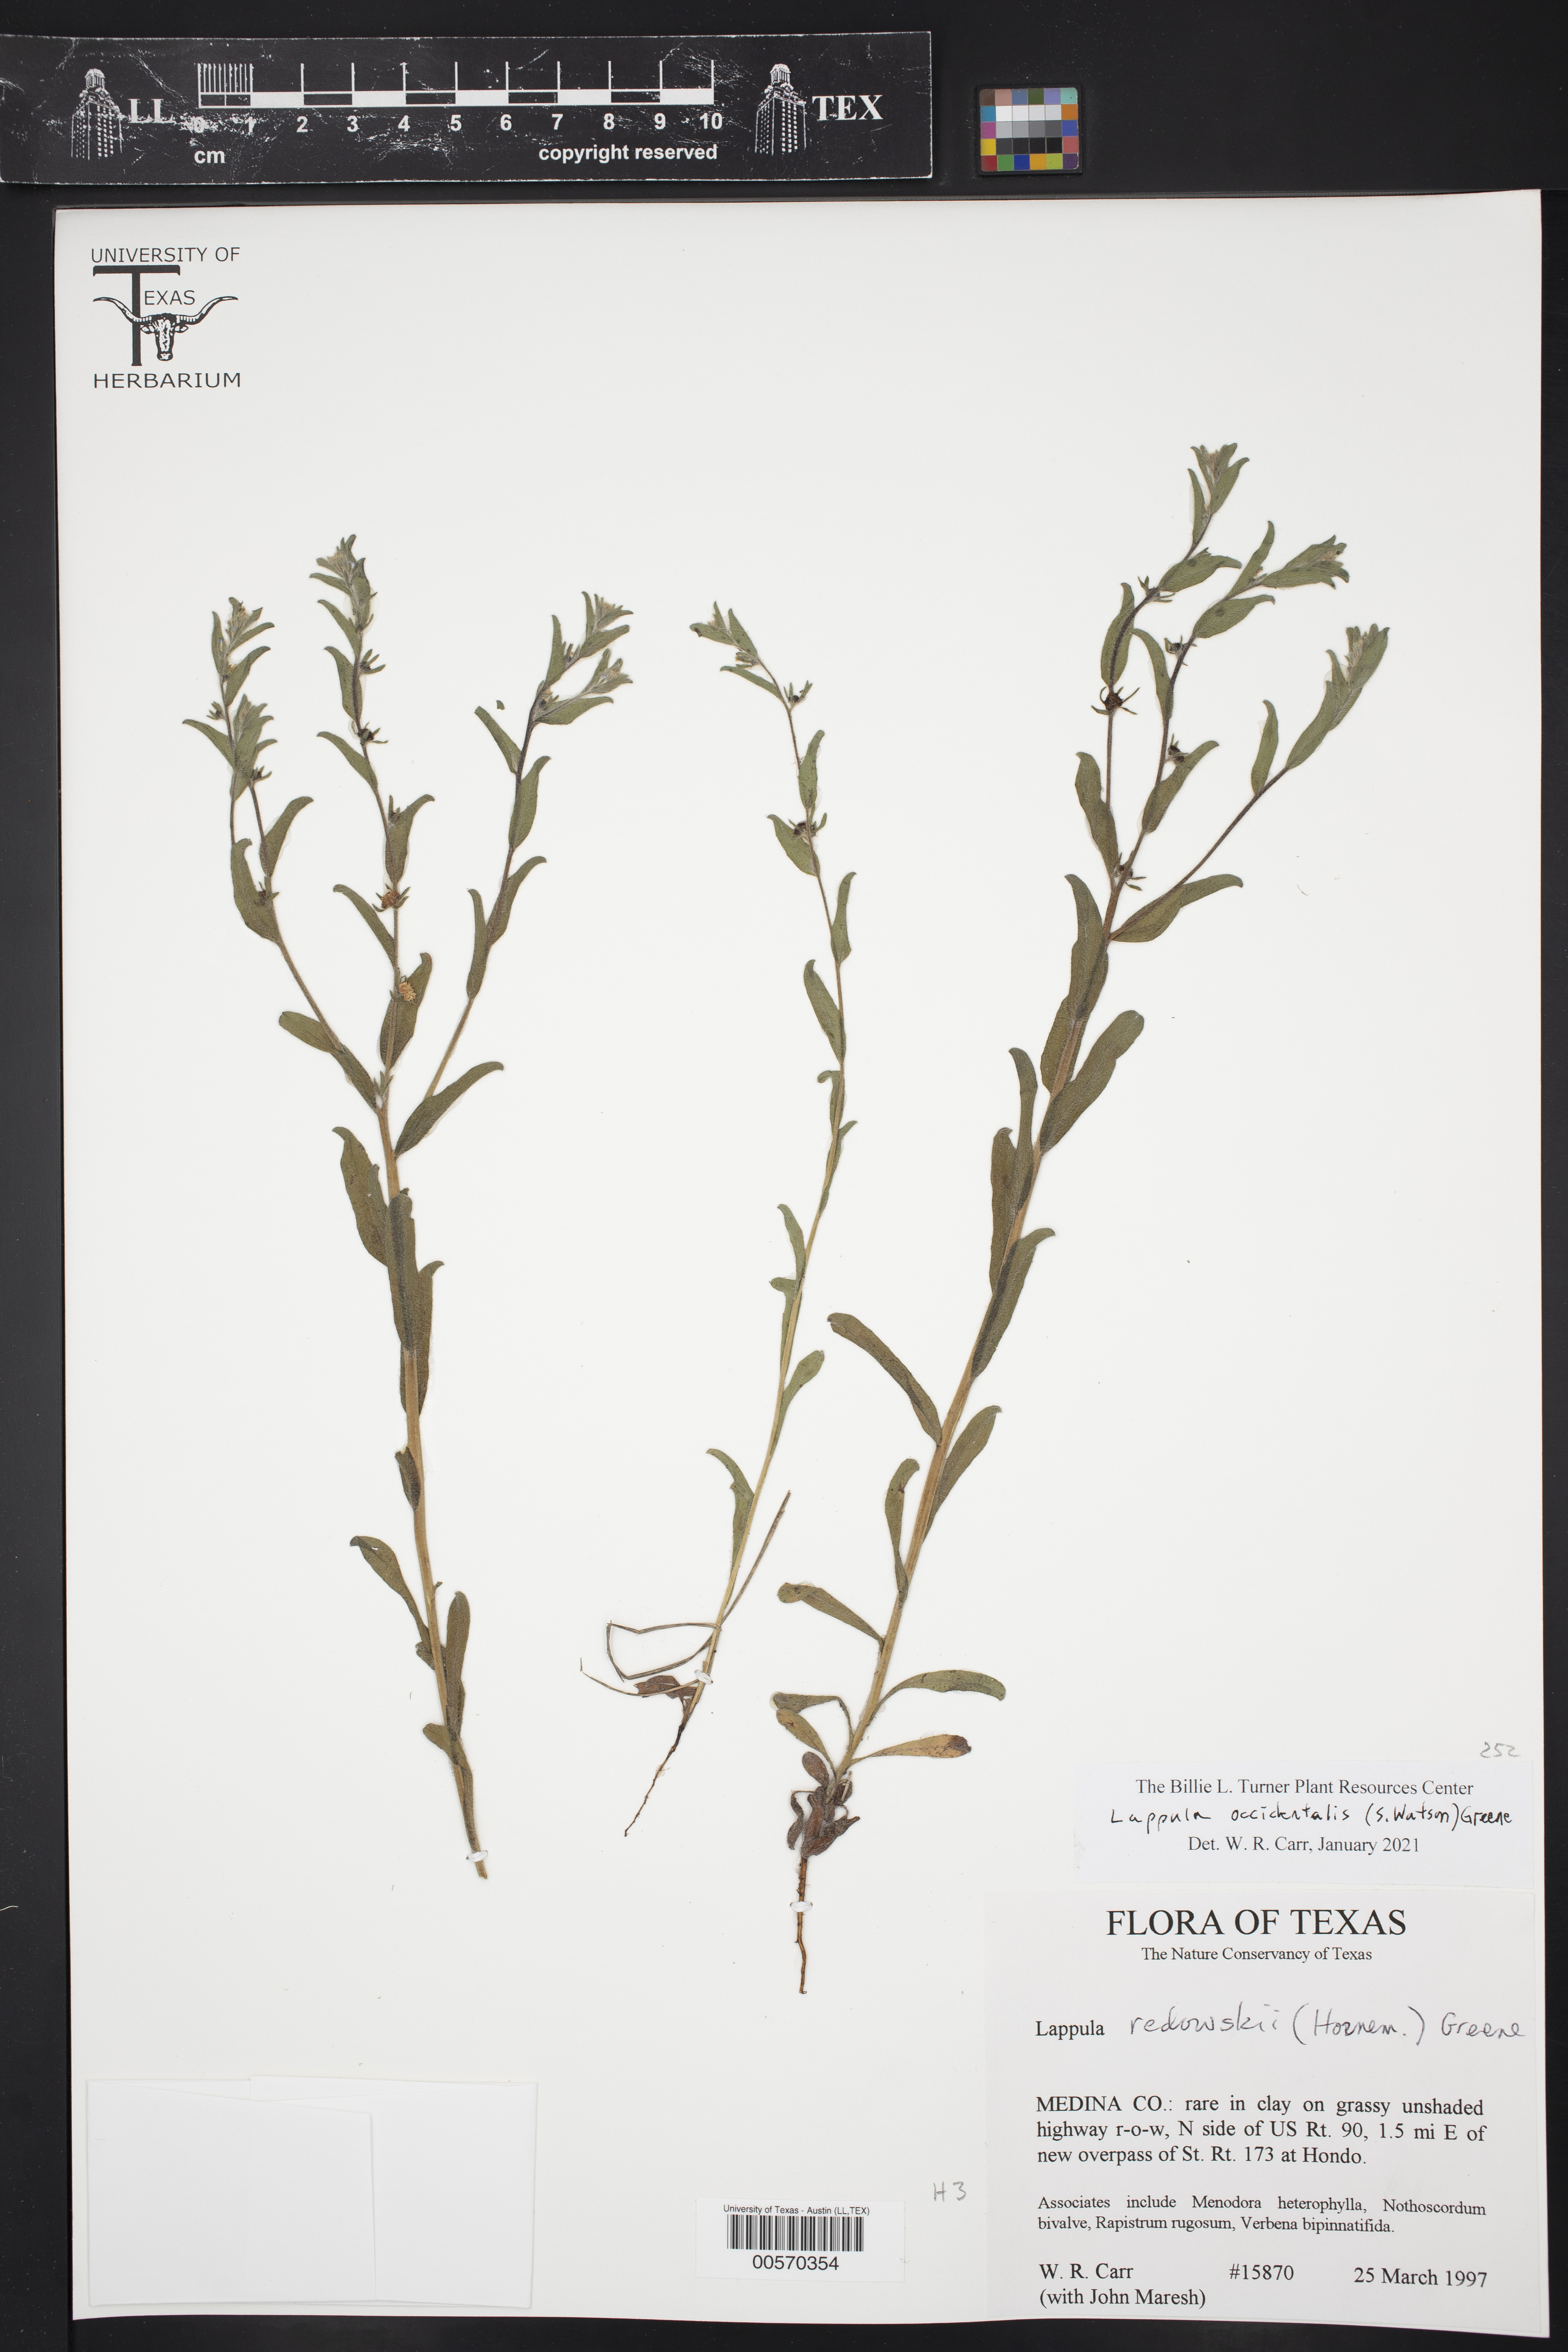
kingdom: Plantae
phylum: Tracheophyta
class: Magnoliopsida
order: Boraginales
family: Boraginaceae
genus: Lappula
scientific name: Lappula occidentalis
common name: Western stickseed
